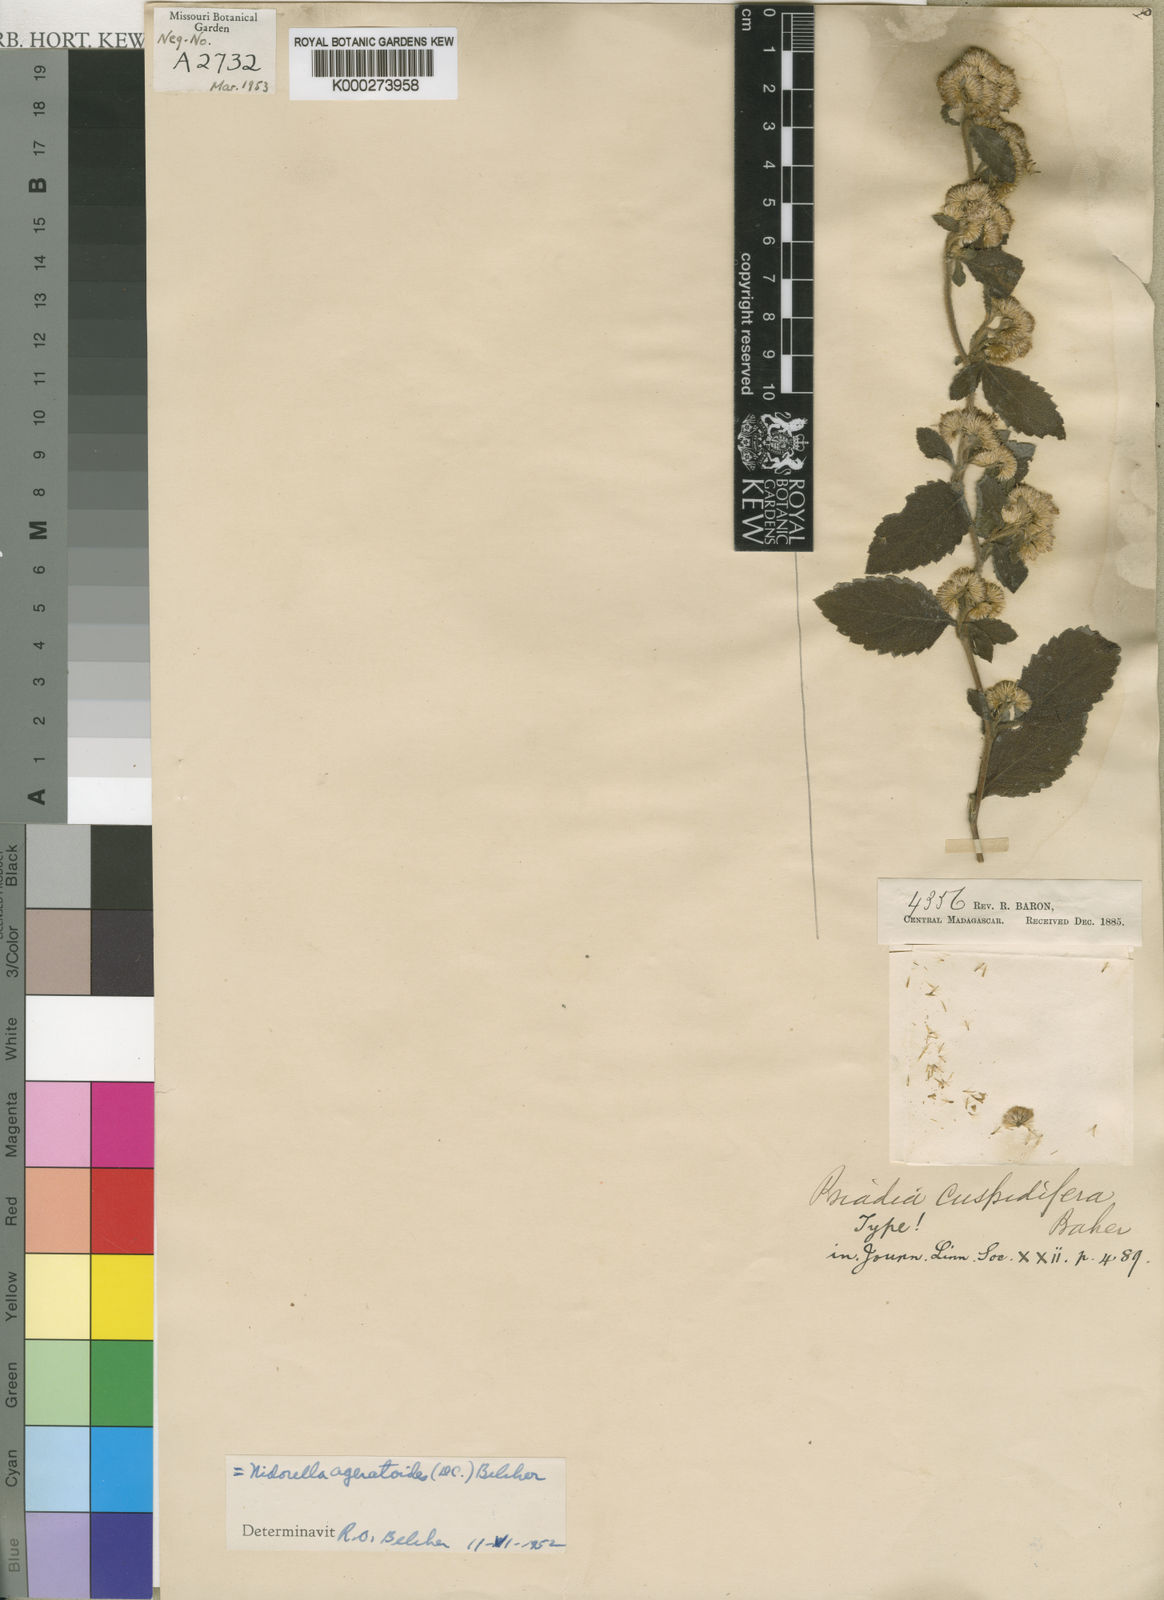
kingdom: Plantae
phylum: Tracheophyta
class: Magnoliopsida
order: Asterales
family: Asteraceae
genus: Psiadia
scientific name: Psiadia ageratoides
